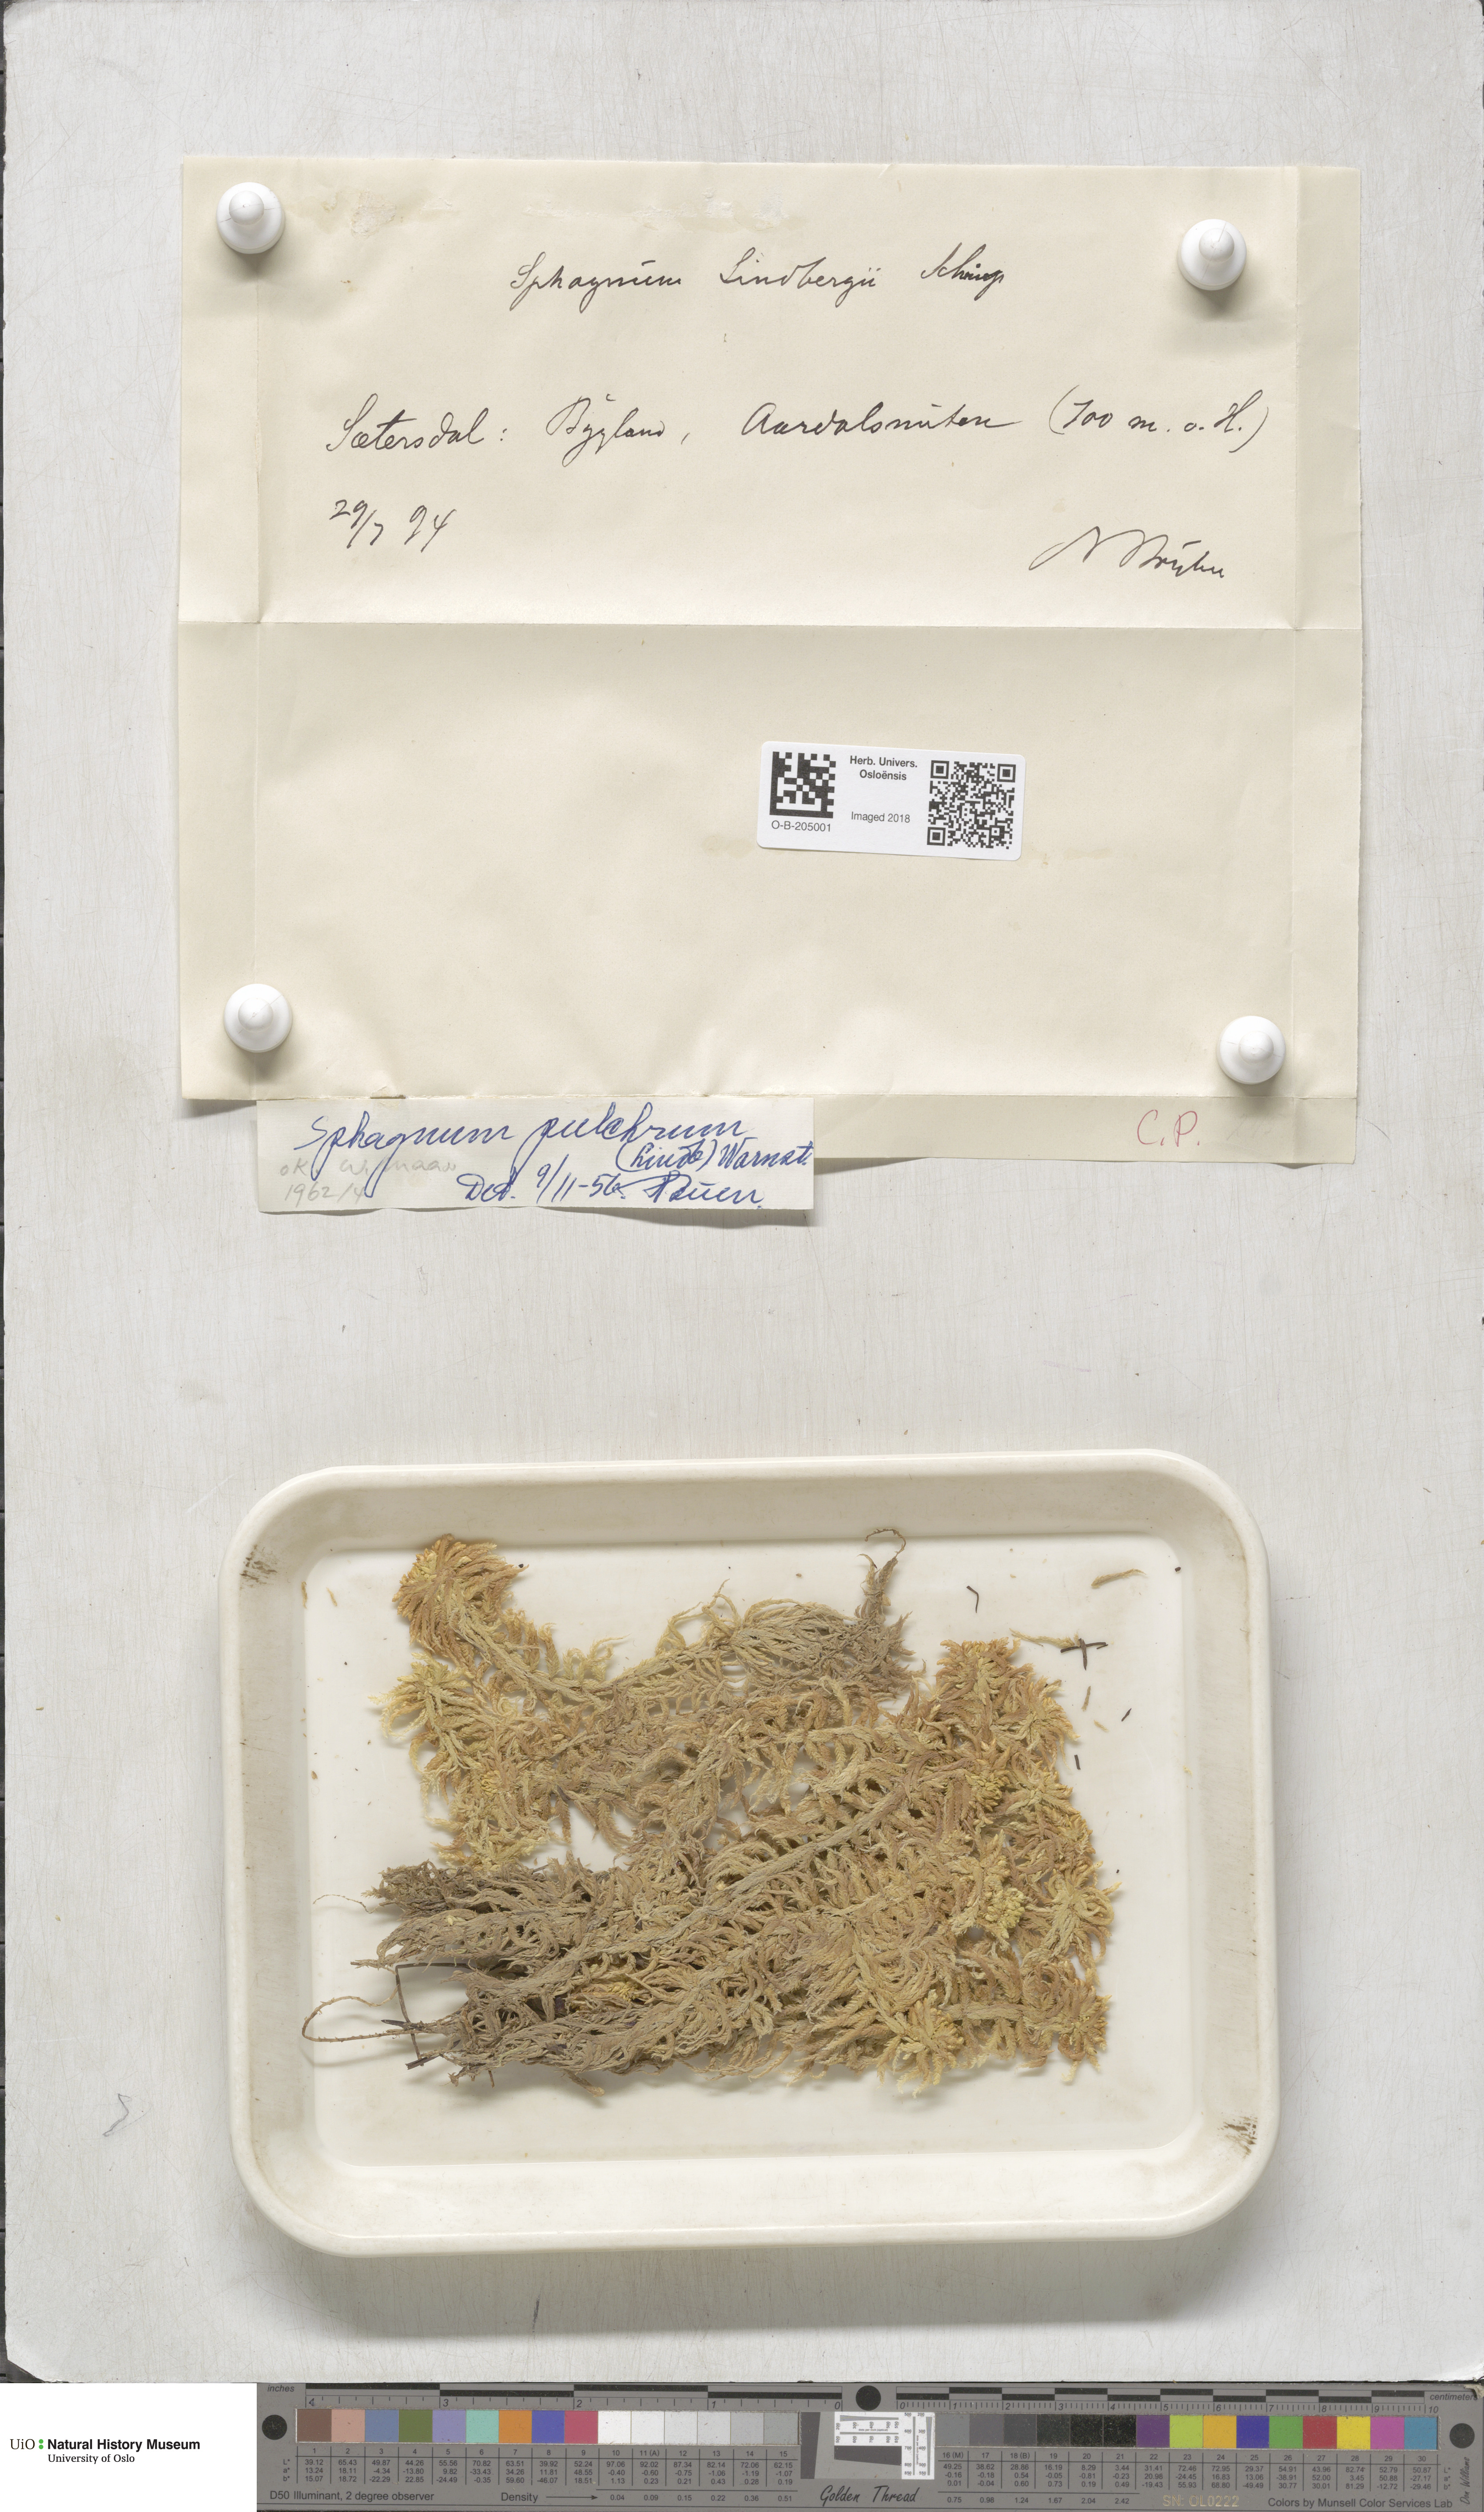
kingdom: Plantae
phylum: Bryophyta
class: Sphagnopsida
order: Sphagnales
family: Sphagnaceae
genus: Sphagnum
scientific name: Sphagnum pulchrum
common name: Beautiful peat moss
